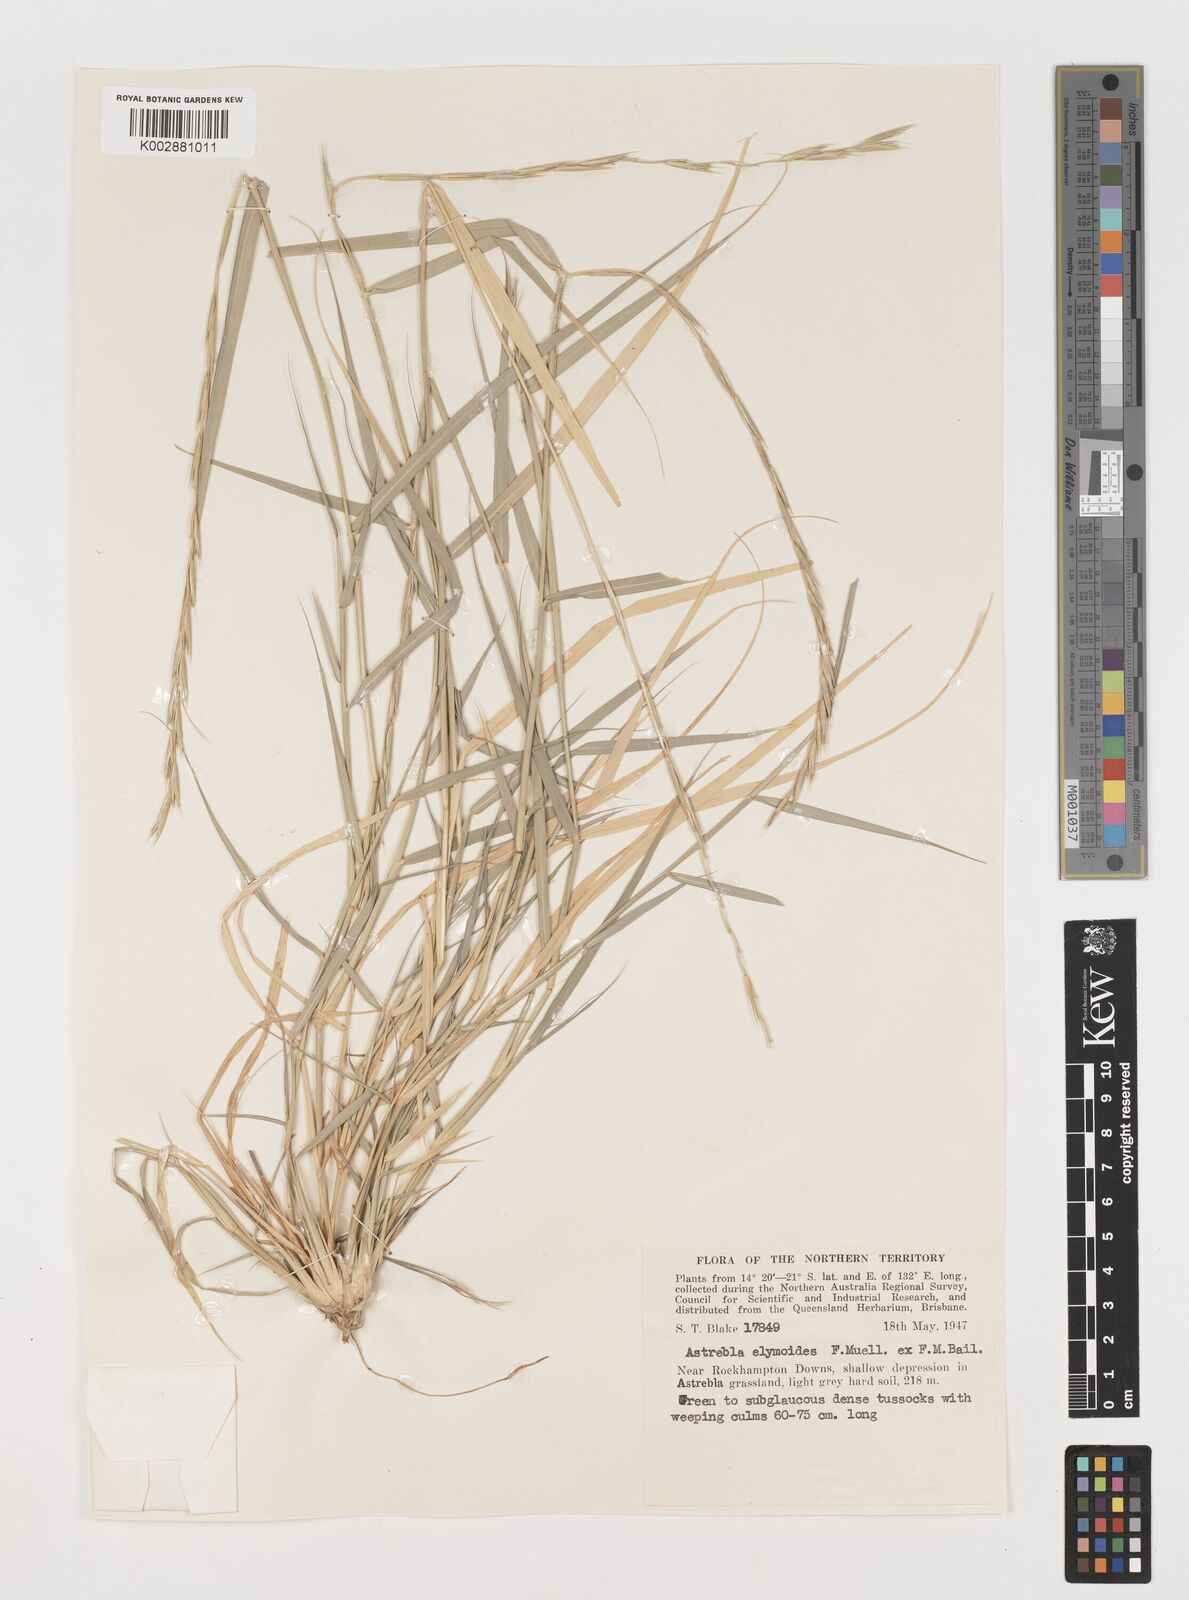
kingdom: Plantae
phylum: Tracheophyta
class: Liliopsida
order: Poales
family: Poaceae
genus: Astrebla
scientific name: Astrebla elymoides
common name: Hoop mitchell grass
